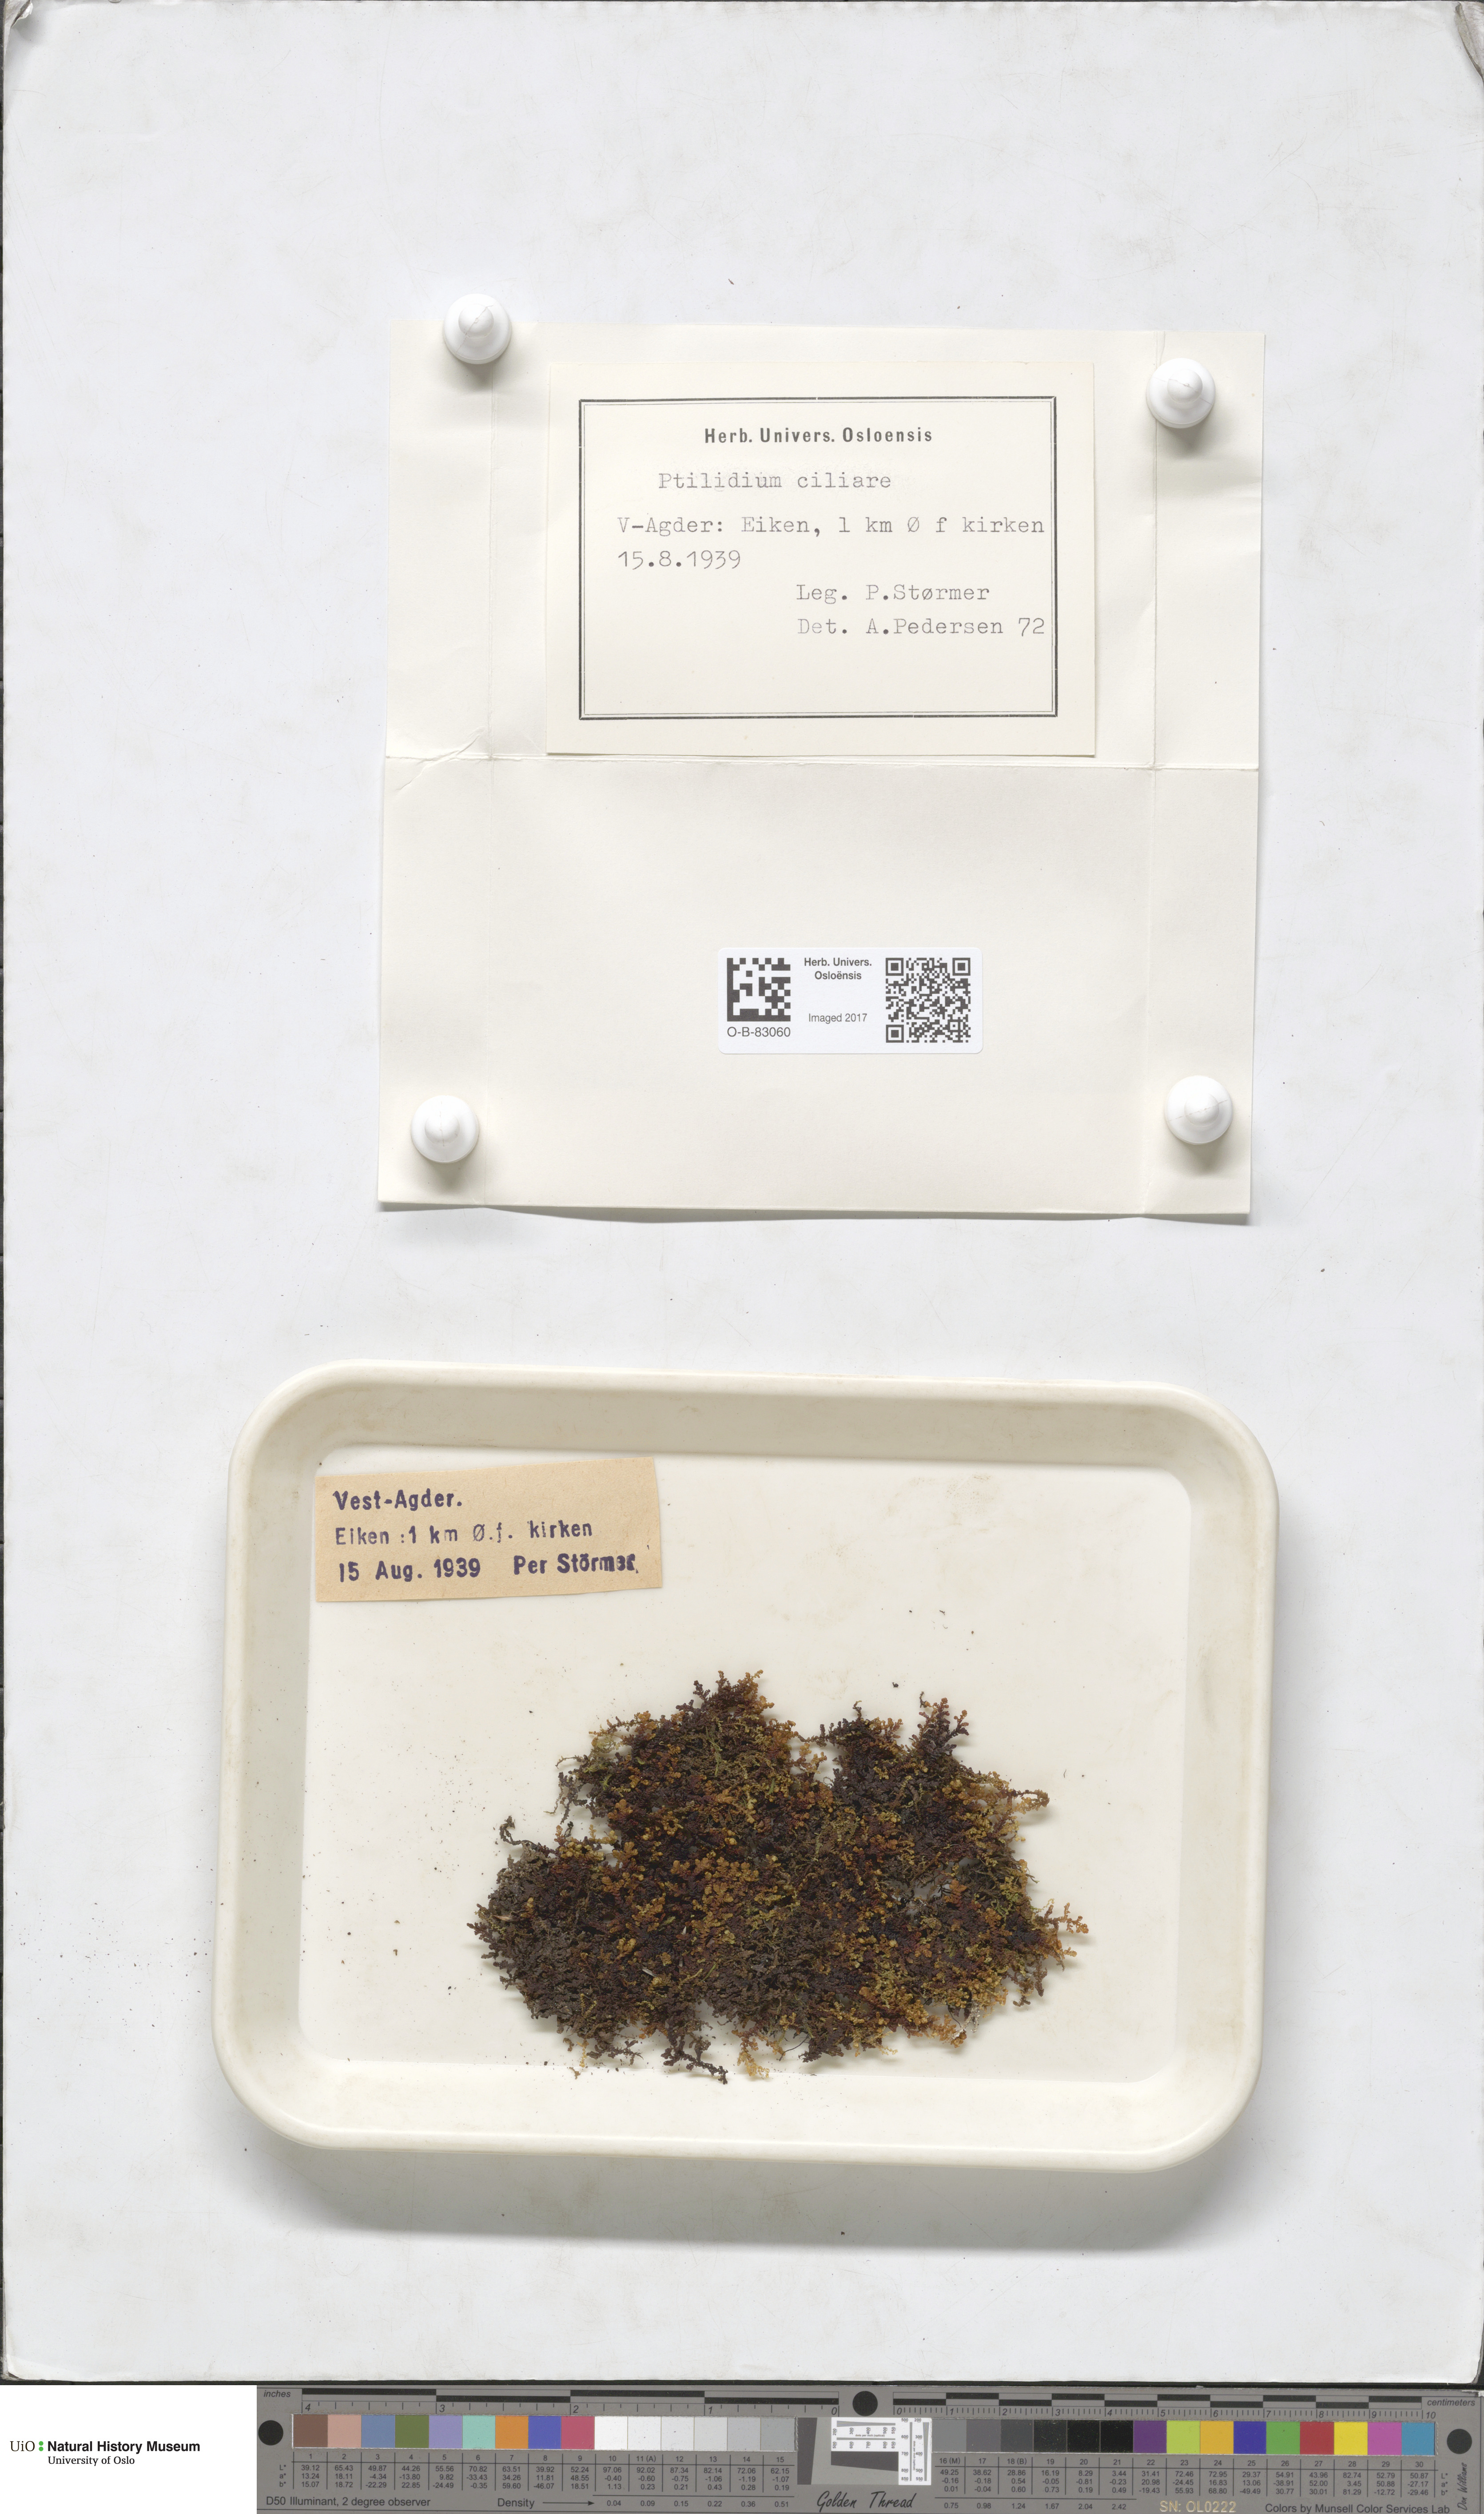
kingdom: Plantae
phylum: Marchantiophyta
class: Jungermanniopsida
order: Ptilidiales
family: Ptilidiaceae
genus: Ptilidium
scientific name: Ptilidium ciliare
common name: Ciliate fringewort
